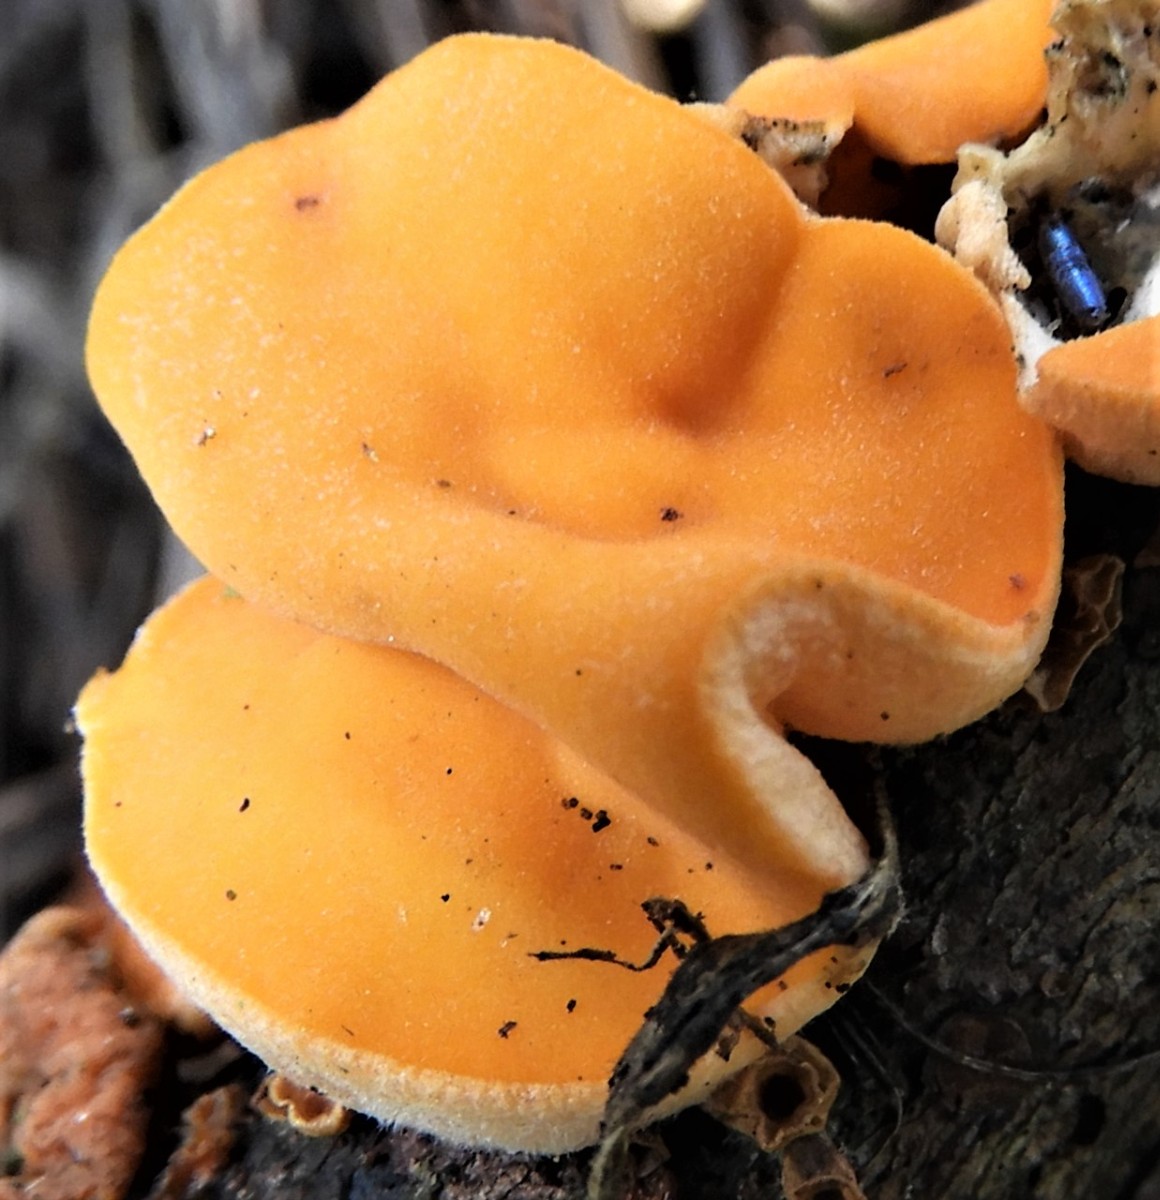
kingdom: Fungi
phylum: Ascomycota
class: Pezizomycetes
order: Pezizales
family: Sarcoscyphaceae
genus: Pithya
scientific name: Pithya vulgaris
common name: stor dukatbæger
